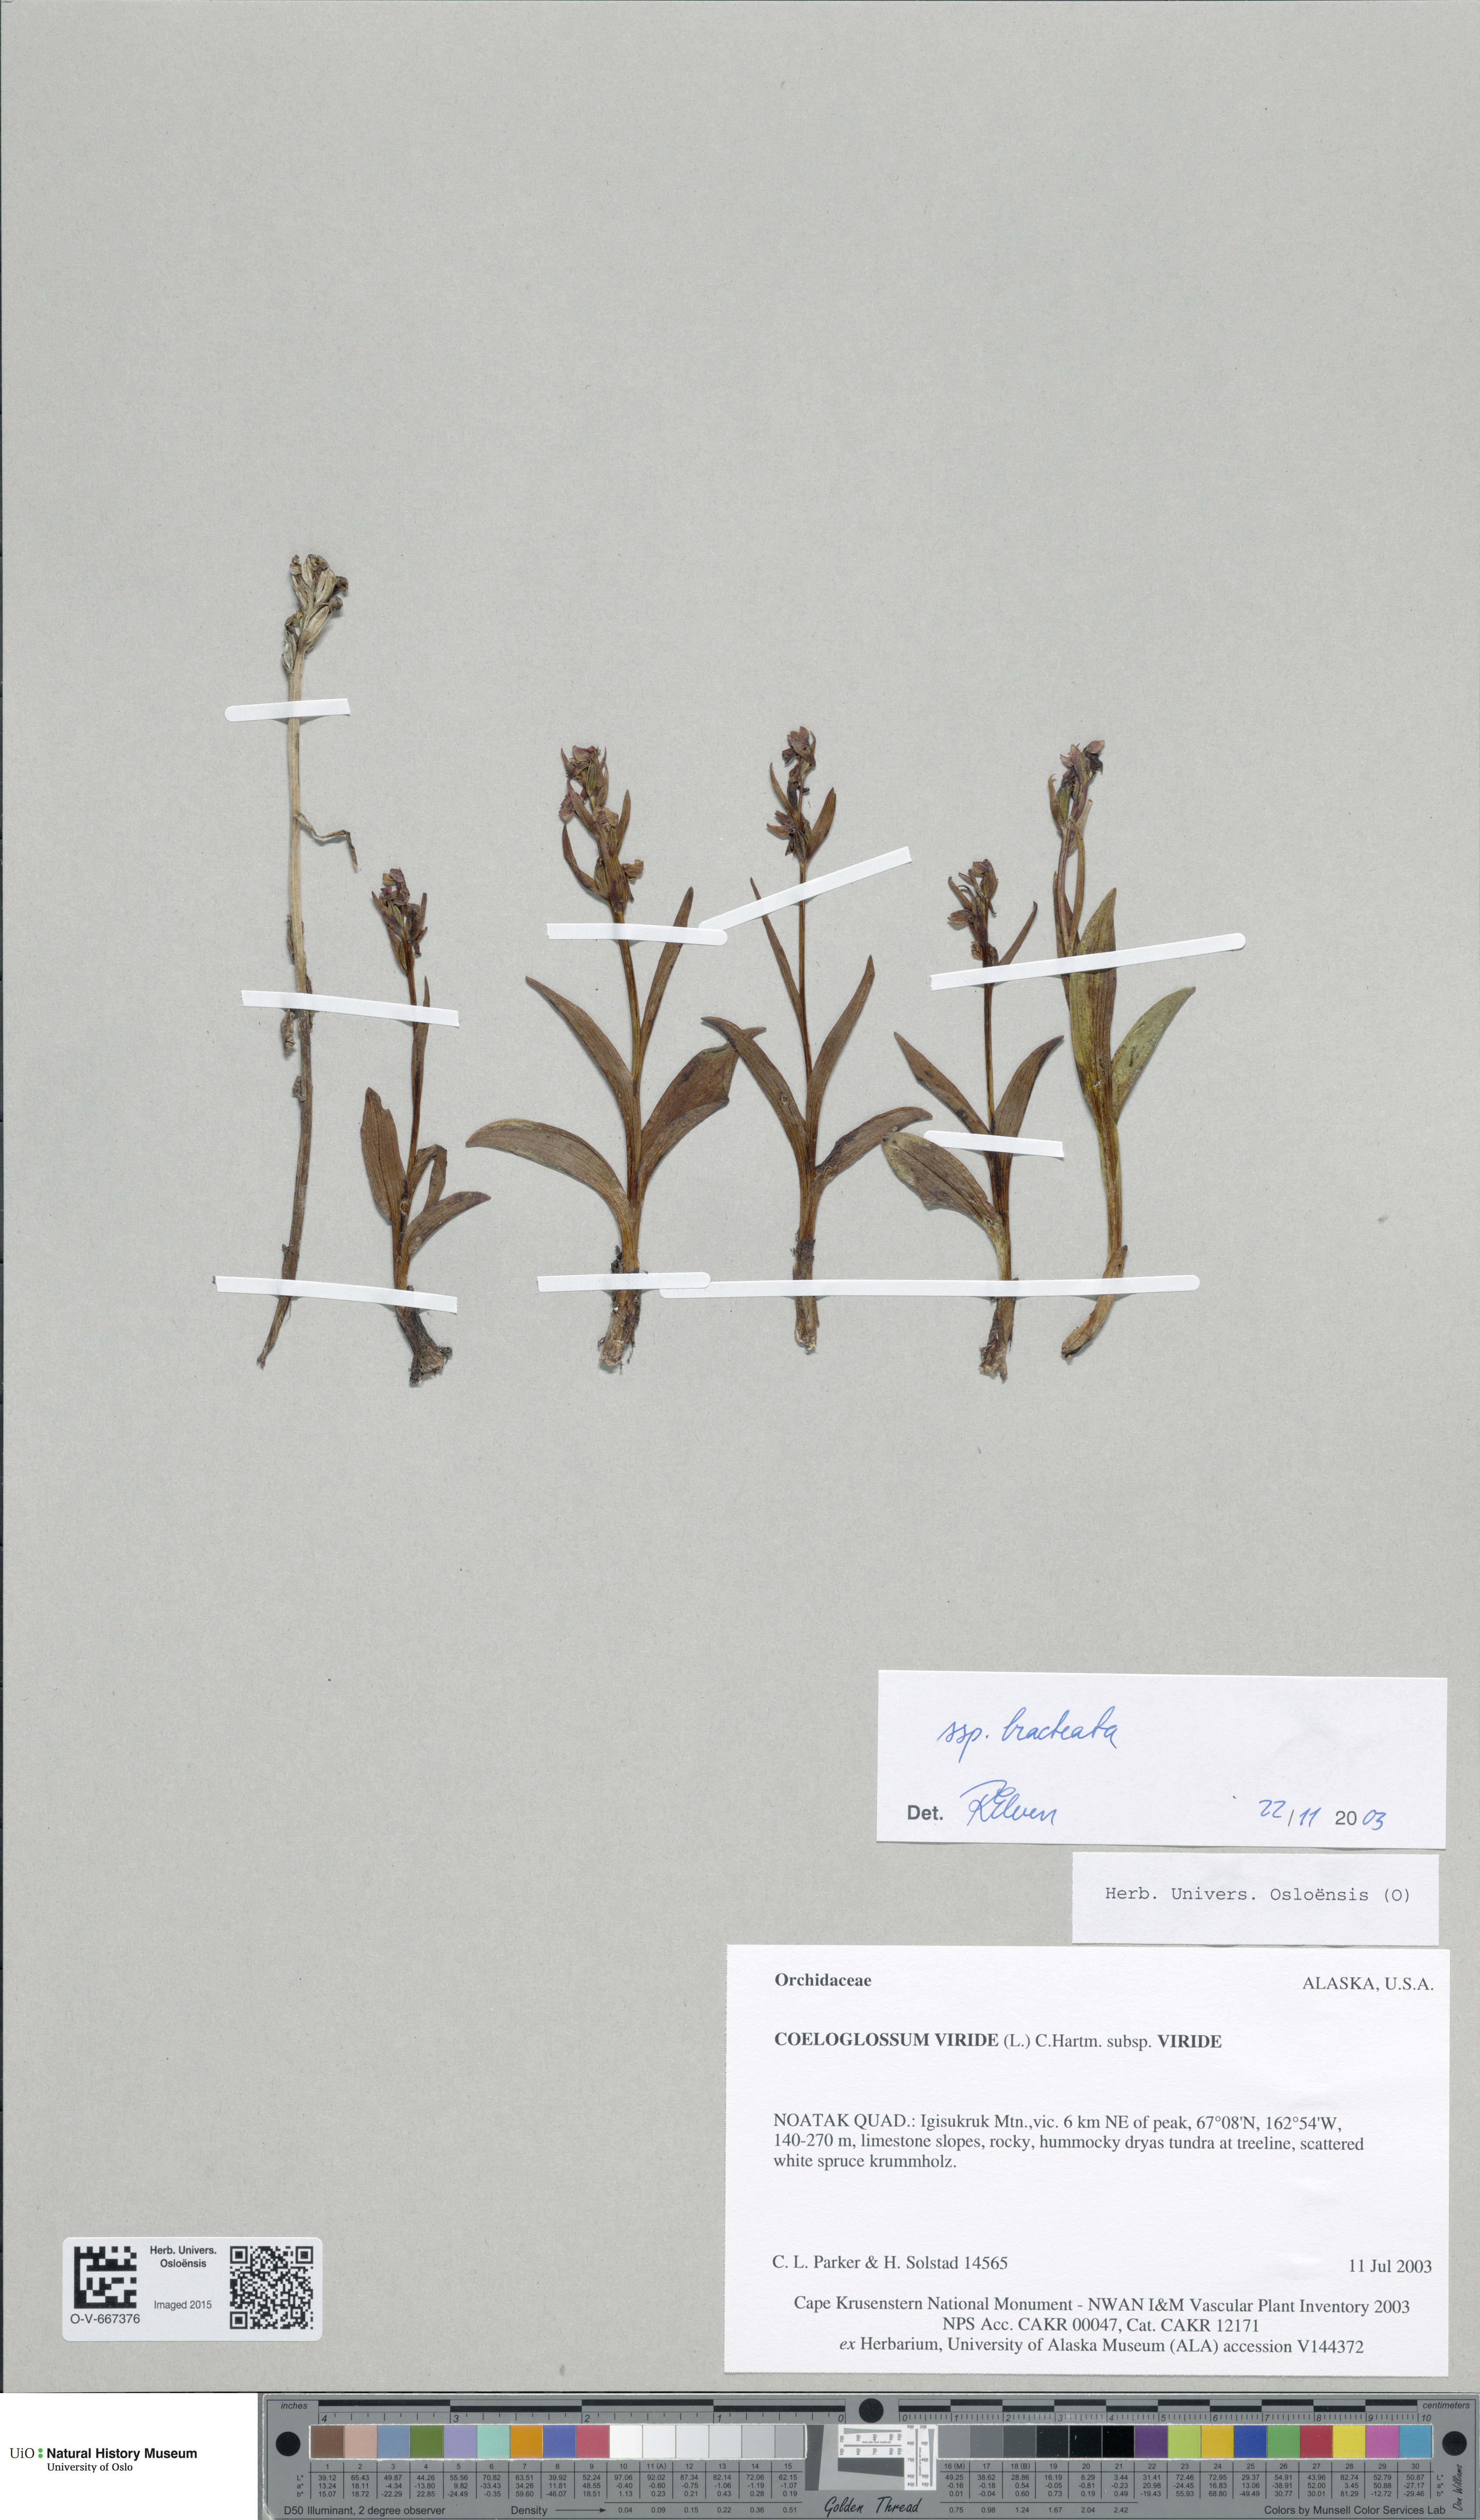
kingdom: Plantae
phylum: Tracheophyta
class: Liliopsida
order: Asparagales
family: Orchidaceae
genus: Dactylorhiza
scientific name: Dactylorhiza viridis
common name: Longbract frog orchid
